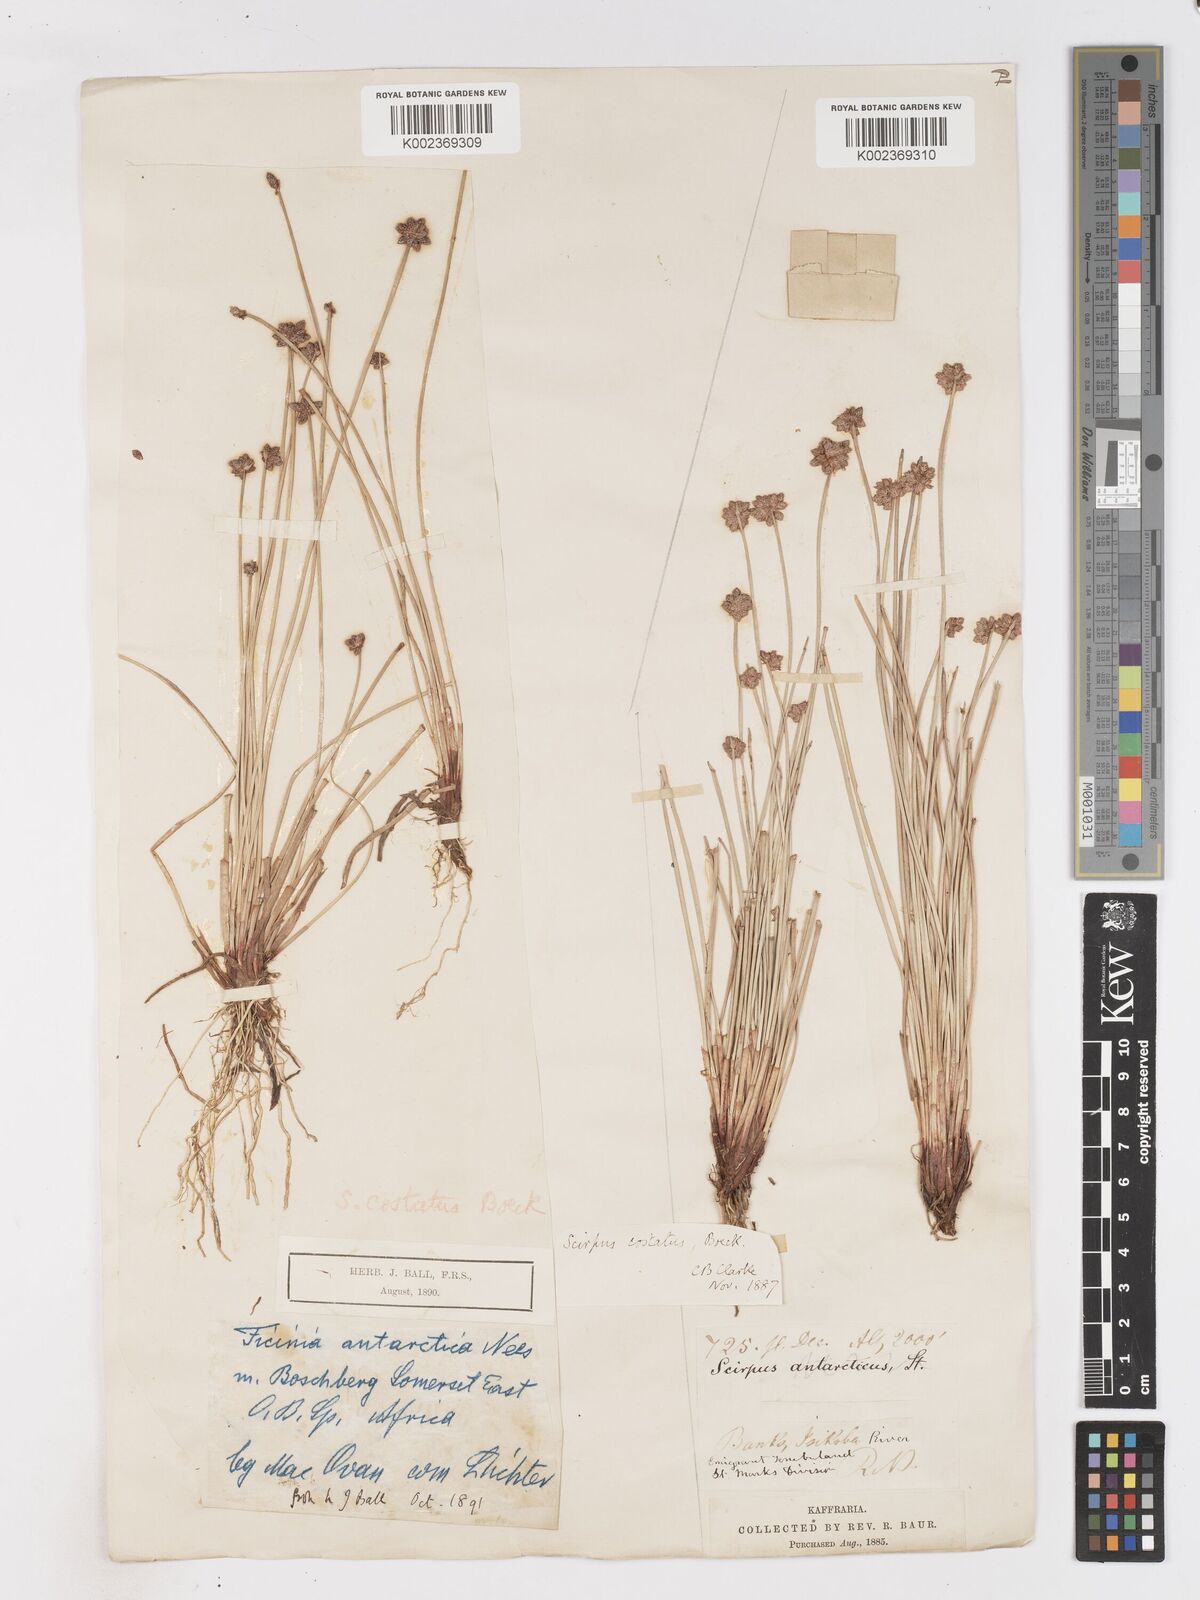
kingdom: Plantae
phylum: Tracheophyta
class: Liliopsida
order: Poales
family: Cyperaceae
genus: Isolepis
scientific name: Isolepis costata
